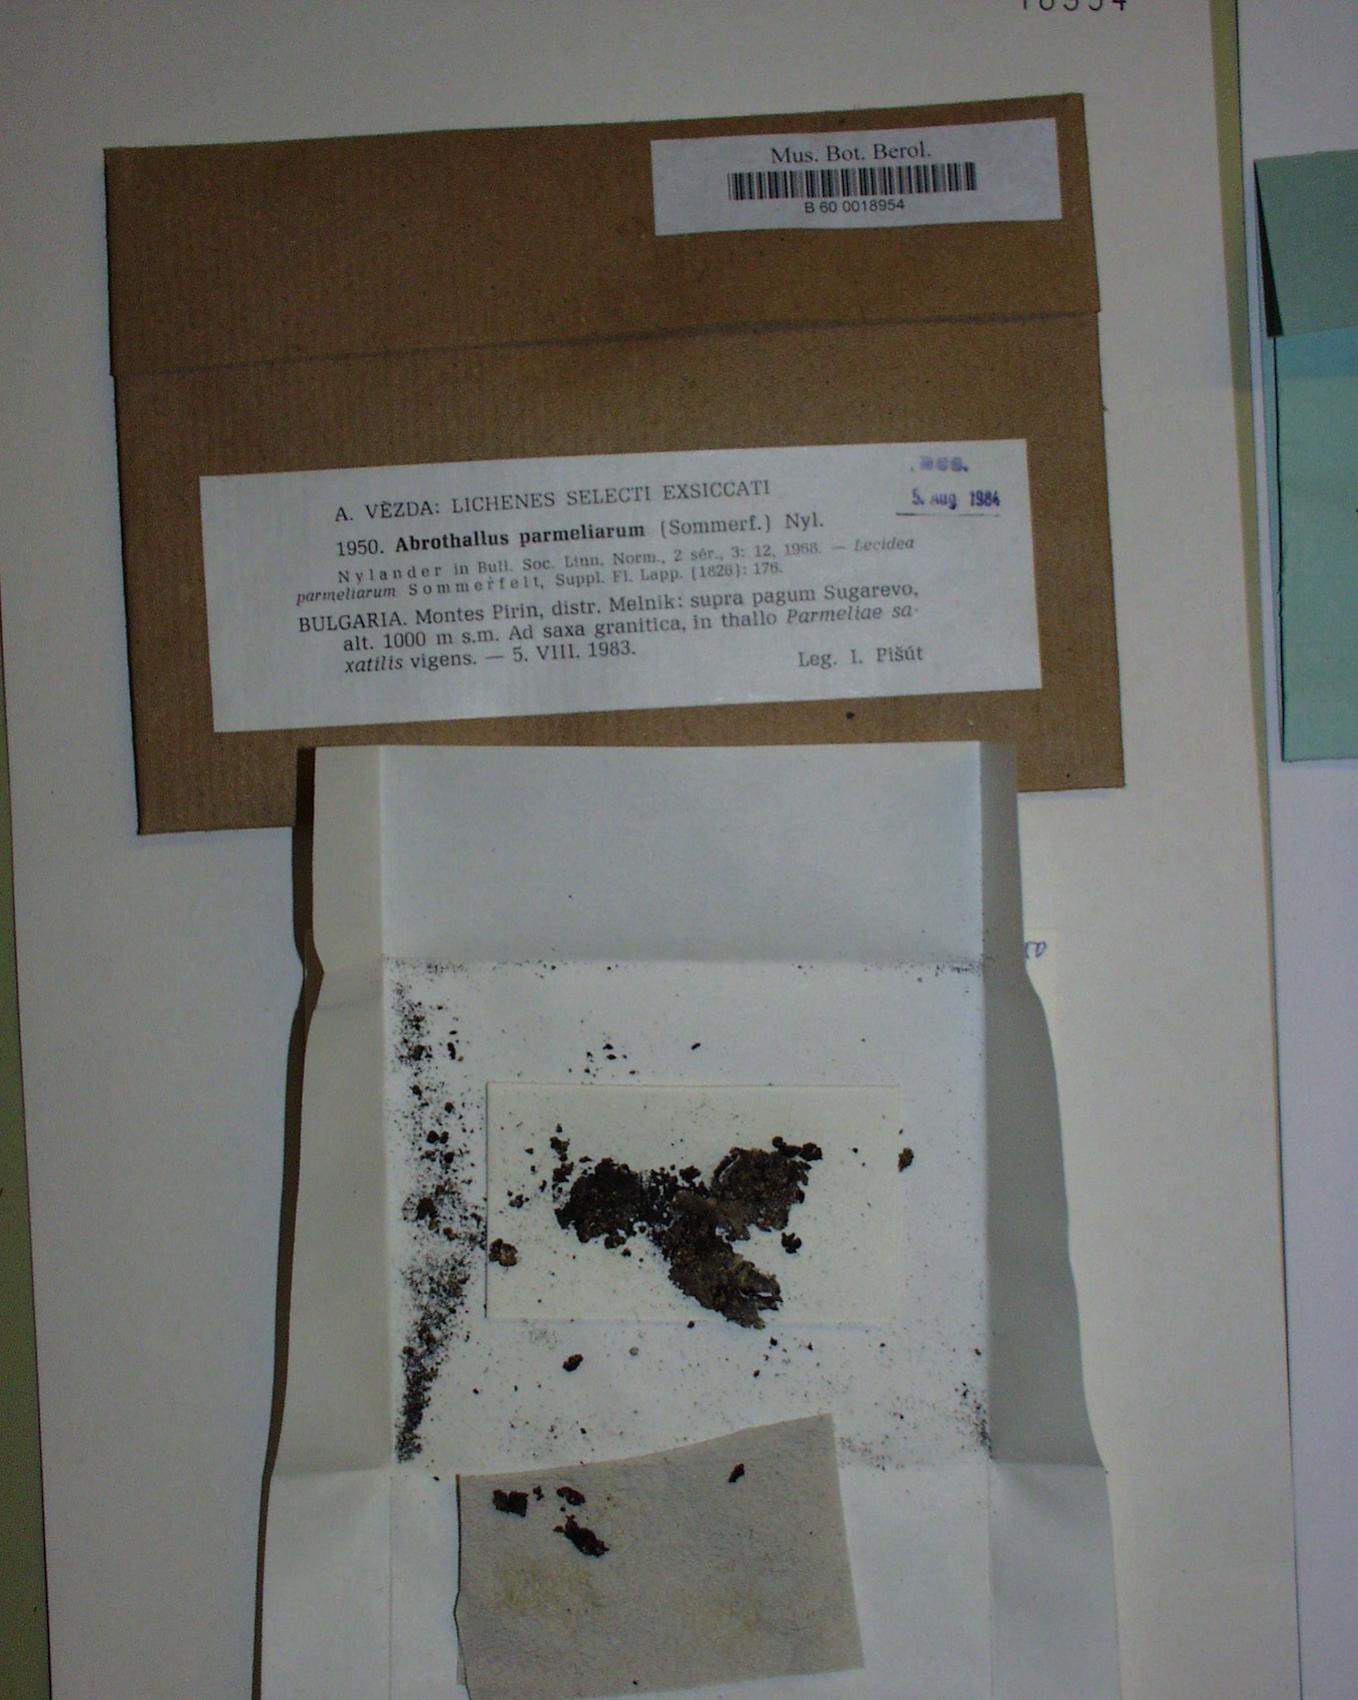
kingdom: Fungi
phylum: Ascomycota
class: Dothideomycetes
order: Abrothallales
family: Abrothallaceae
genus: Abrothallus
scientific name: Abrothallus parmeliarum
